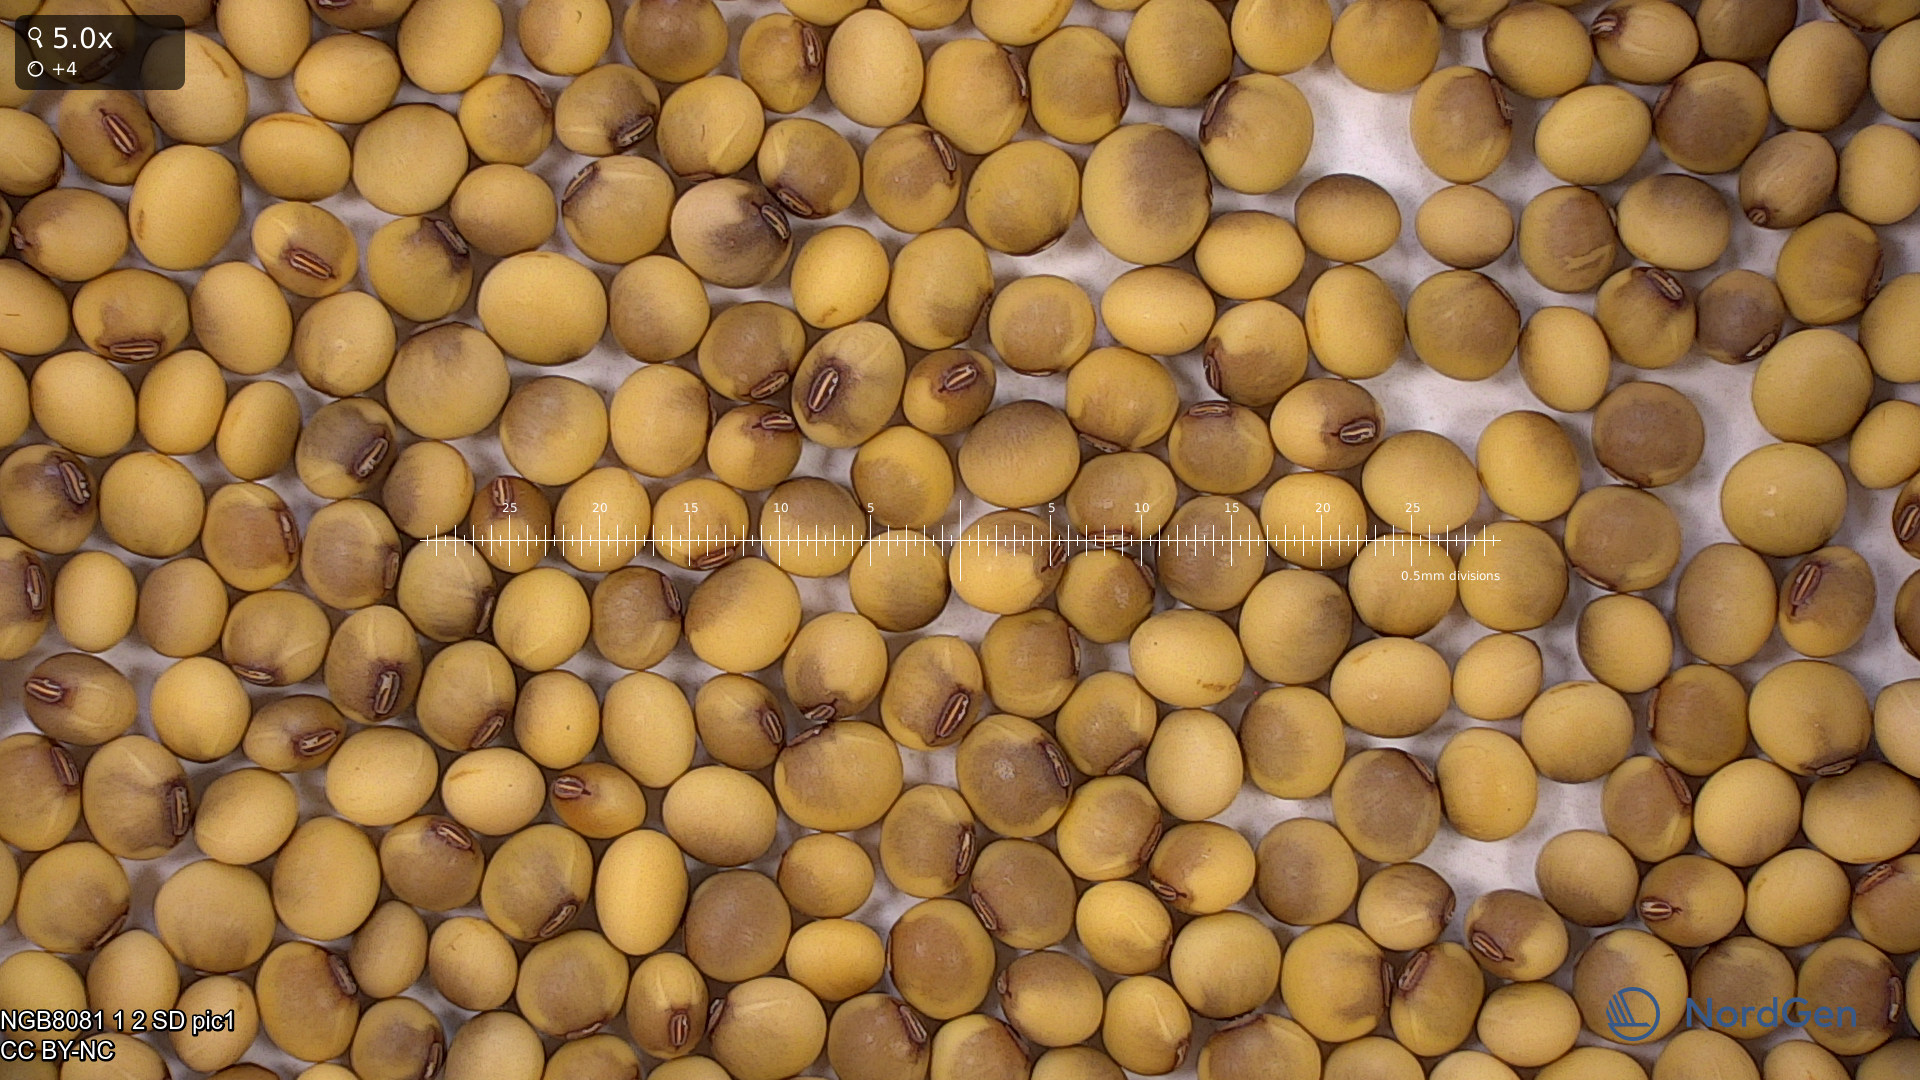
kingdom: Plantae
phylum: Tracheophyta
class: Magnoliopsida
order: Fabales
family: Fabaceae
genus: Glycine
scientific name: Glycine max
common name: Soya-bean
